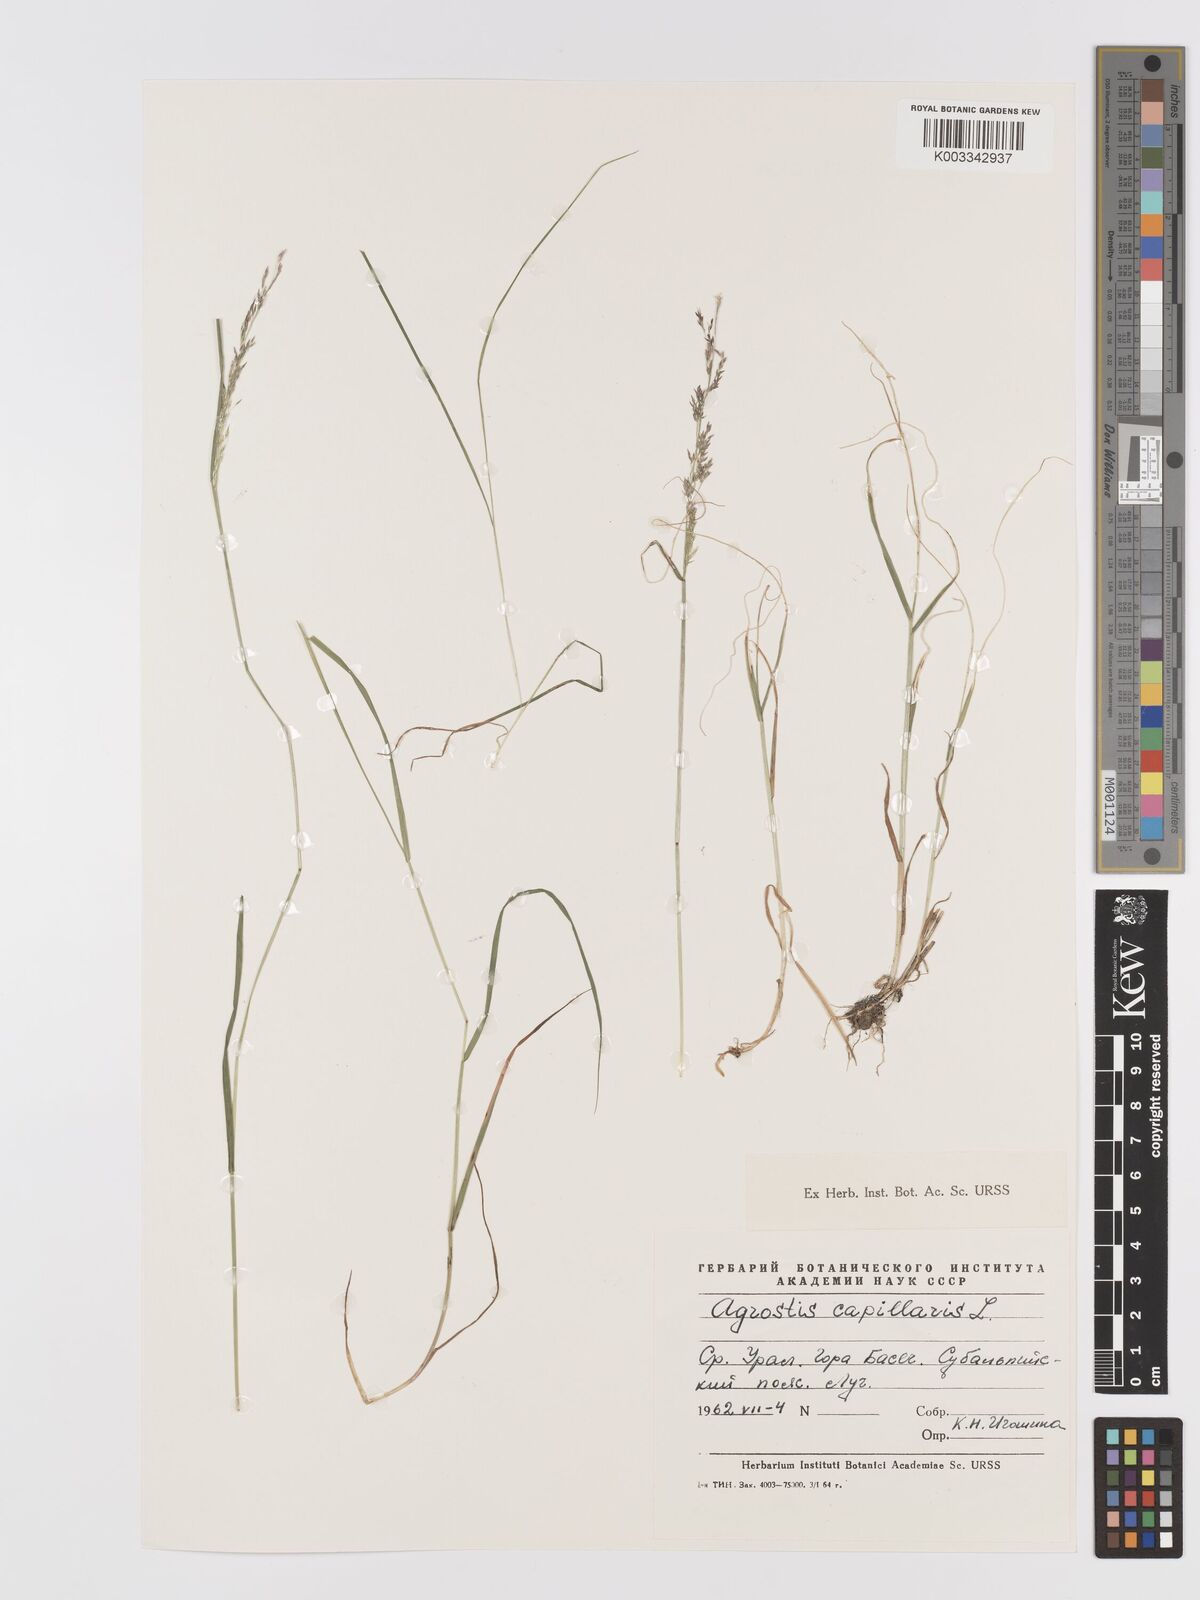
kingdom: Plantae
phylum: Tracheophyta
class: Liliopsida
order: Poales
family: Poaceae
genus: Agrostis
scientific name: Agrostis capillaris
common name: Colonial bentgrass
